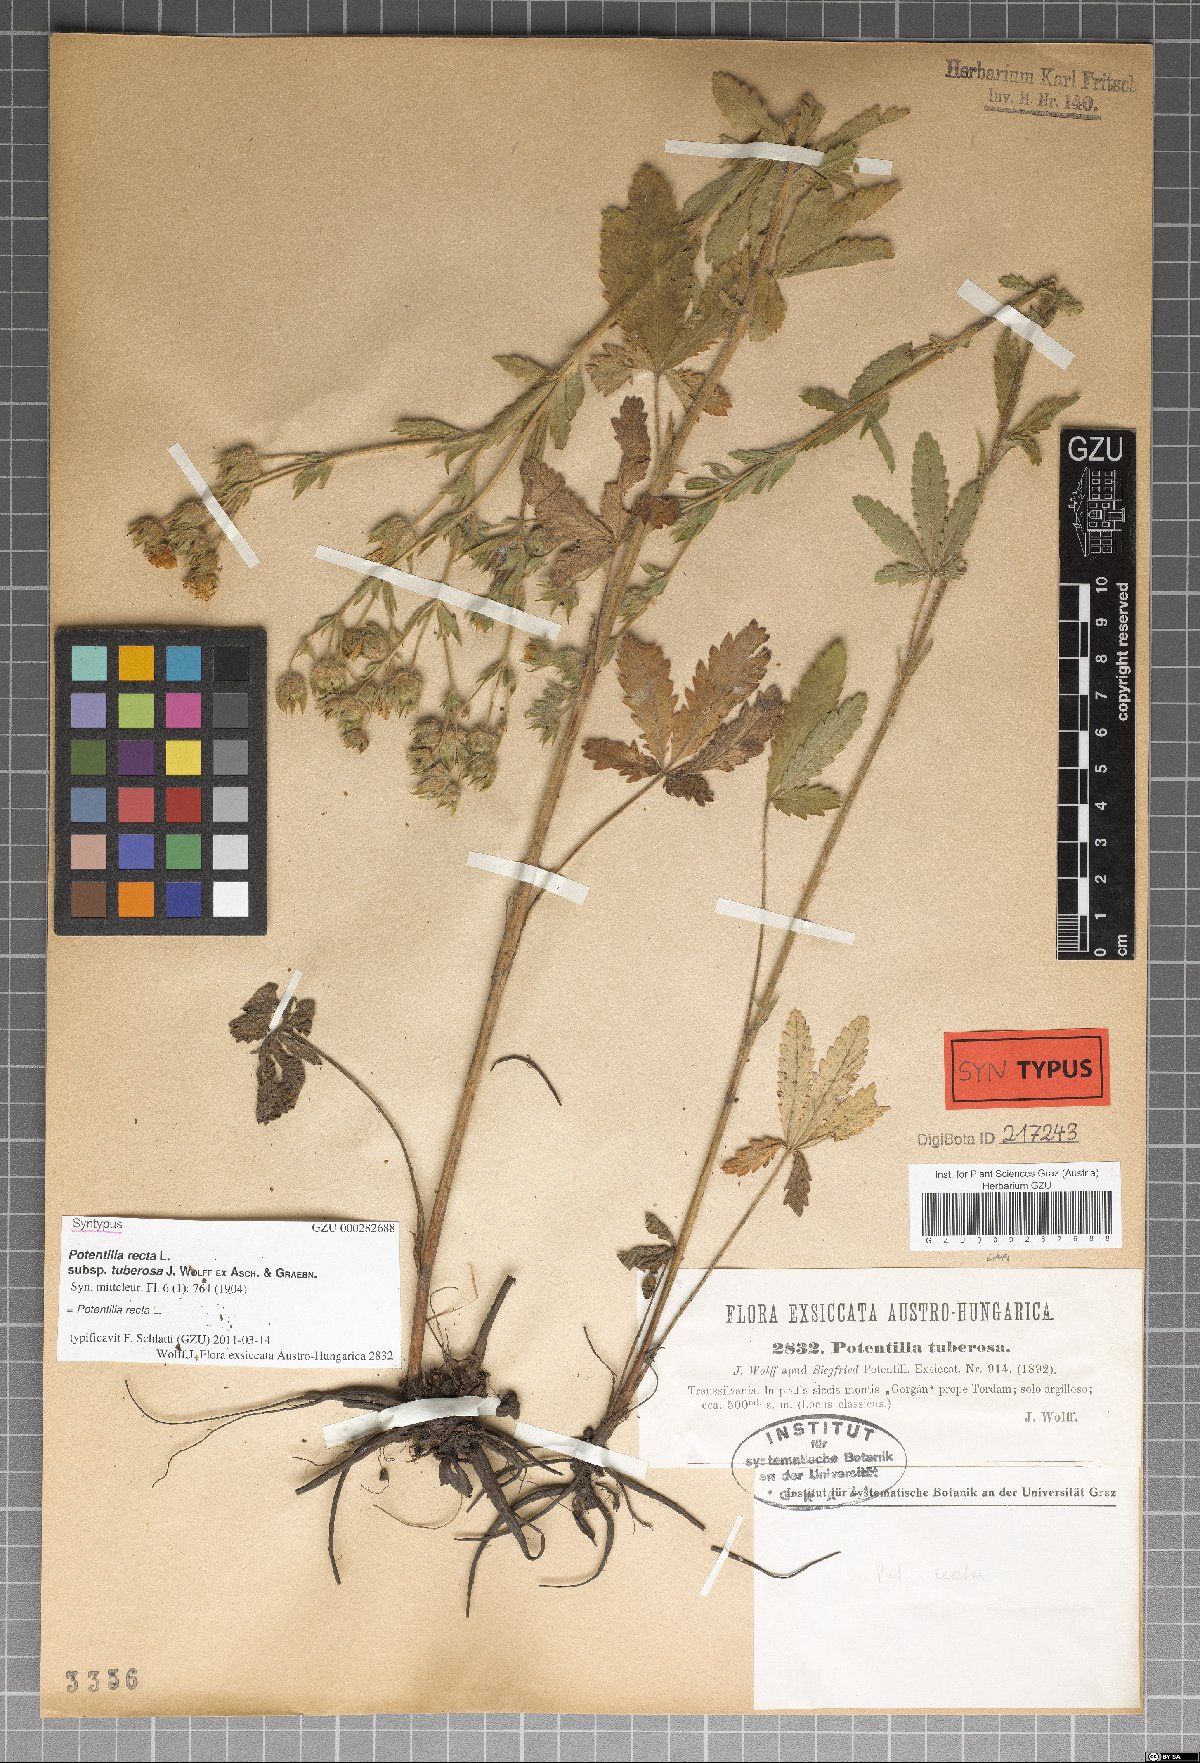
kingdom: Plantae
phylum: Tracheophyta
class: Magnoliopsida
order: Rosales
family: Rosaceae
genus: Potentilla
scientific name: Potentilla recta
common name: Sulphur cinquefoil
